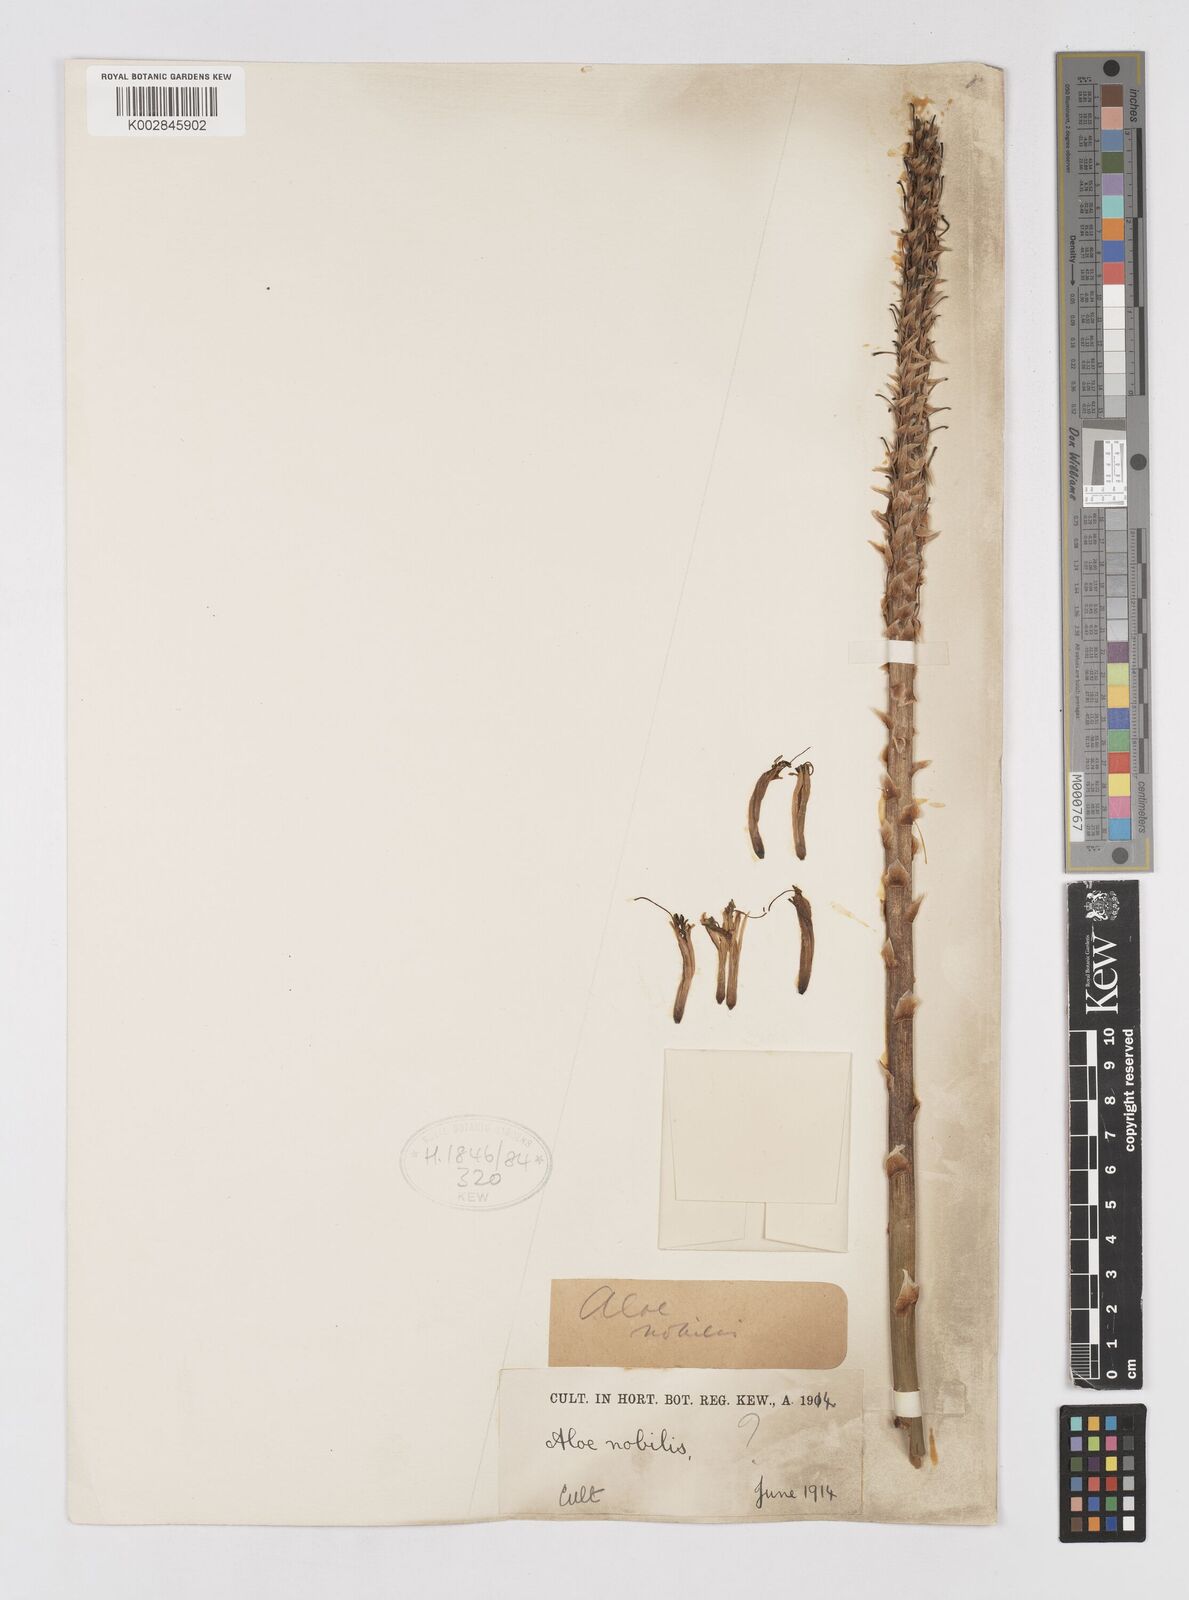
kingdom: Plantae
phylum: Tracheophyta
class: Liliopsida
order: Asparagales
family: Asphodelaceae
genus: Aloe
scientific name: Aloe nobilis
